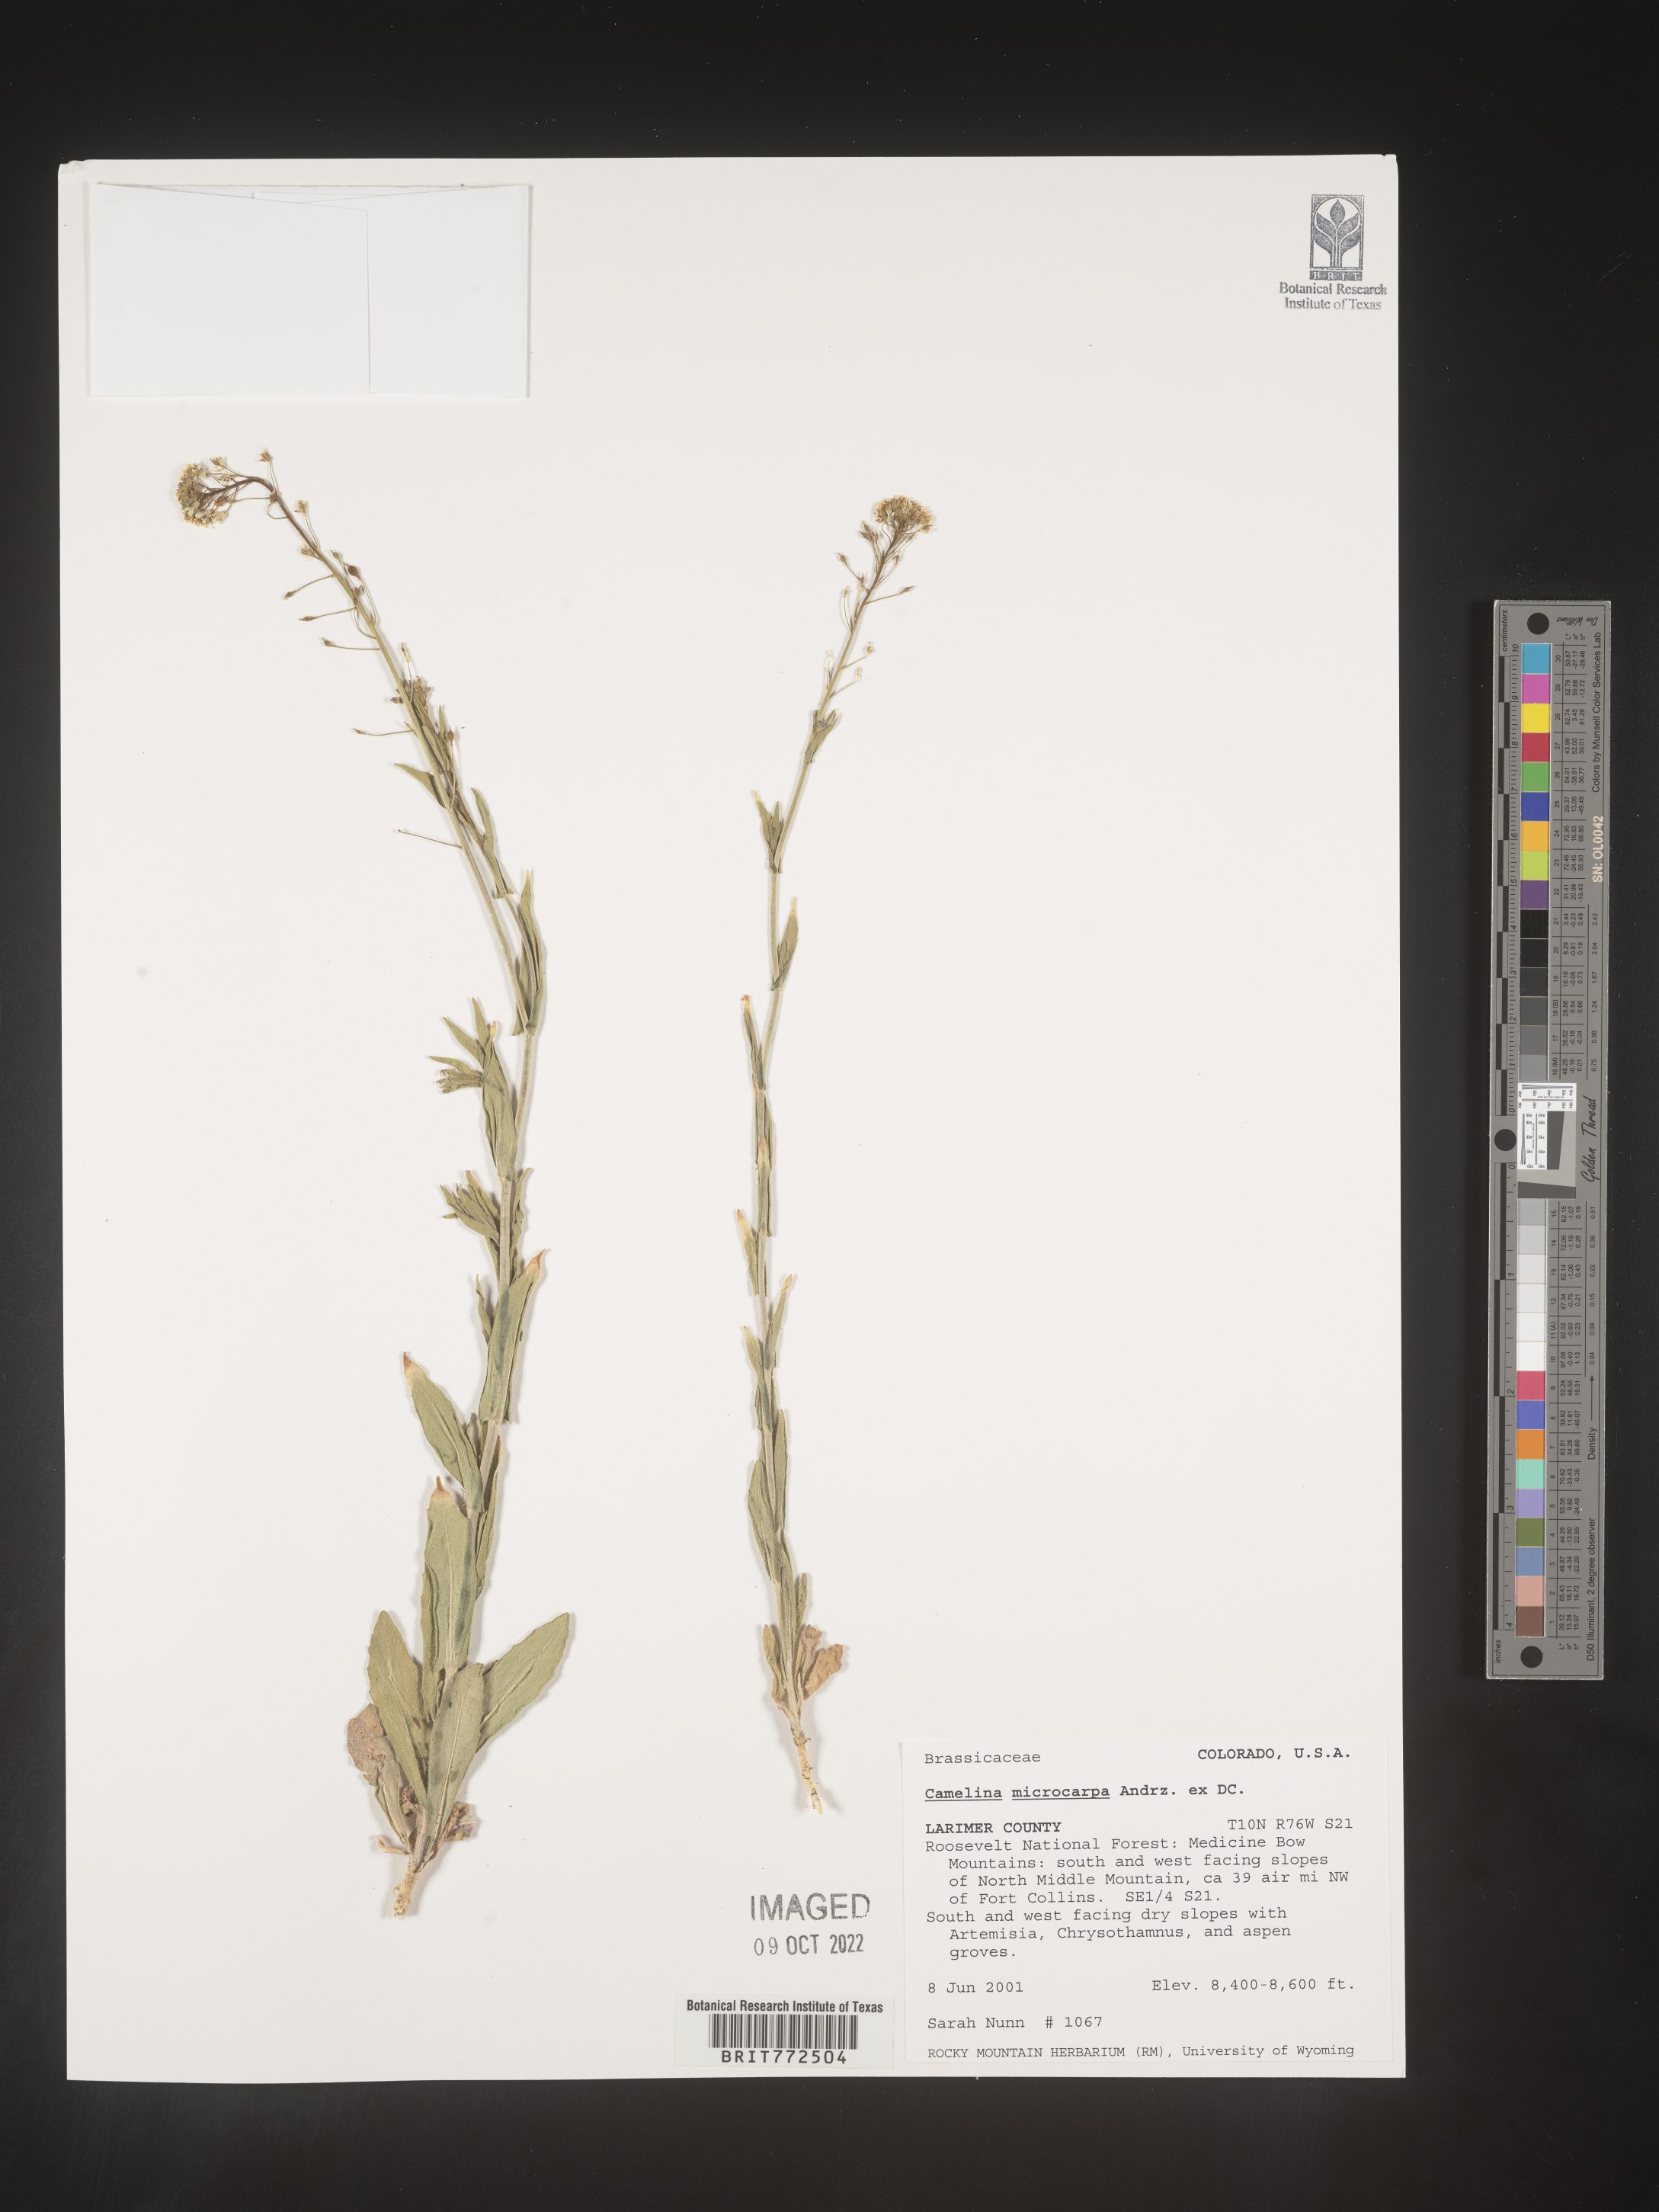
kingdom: Plantae
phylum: Tracheophyta
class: Magnoliopsida
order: Brassicales
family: Brassicaceae
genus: Camelina
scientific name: Camelina microcarpa
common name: Lesser gold-of-pleasure
